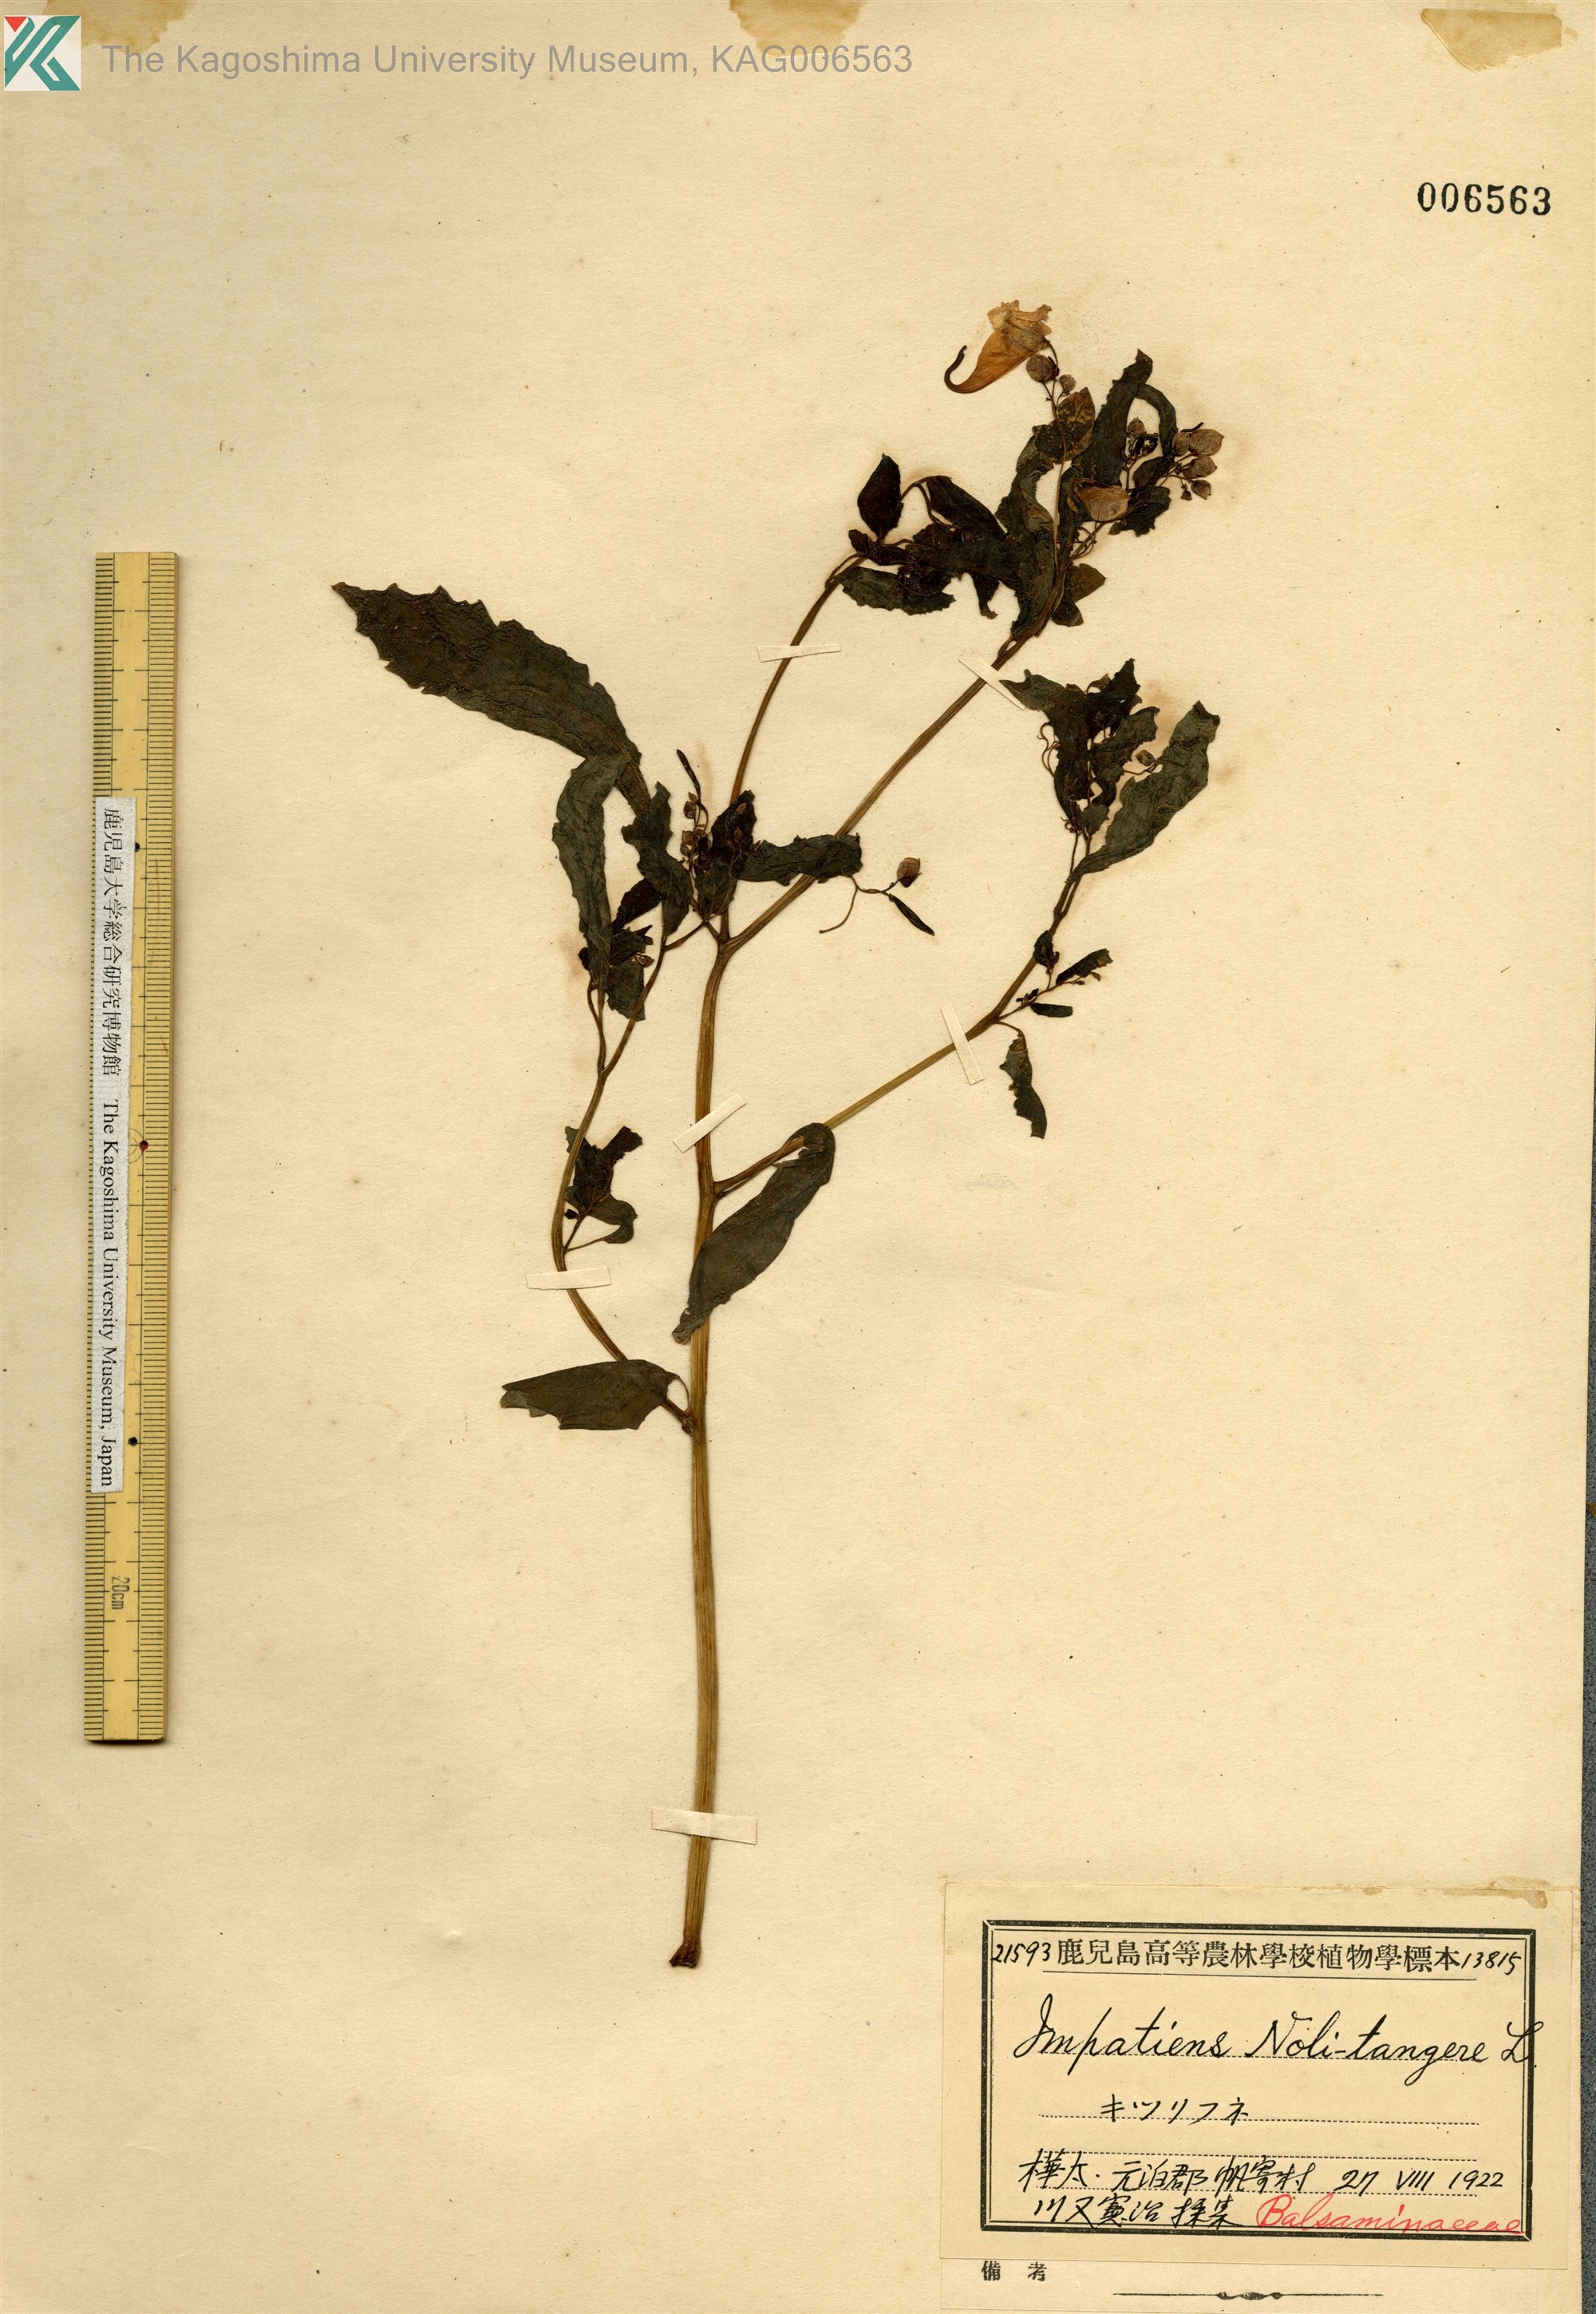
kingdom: Plantae
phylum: Tracheophyta
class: Magnoliopsida
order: Ericales
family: Balsaminaceae
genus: Impatiens
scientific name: Impatiens noli-tangere
